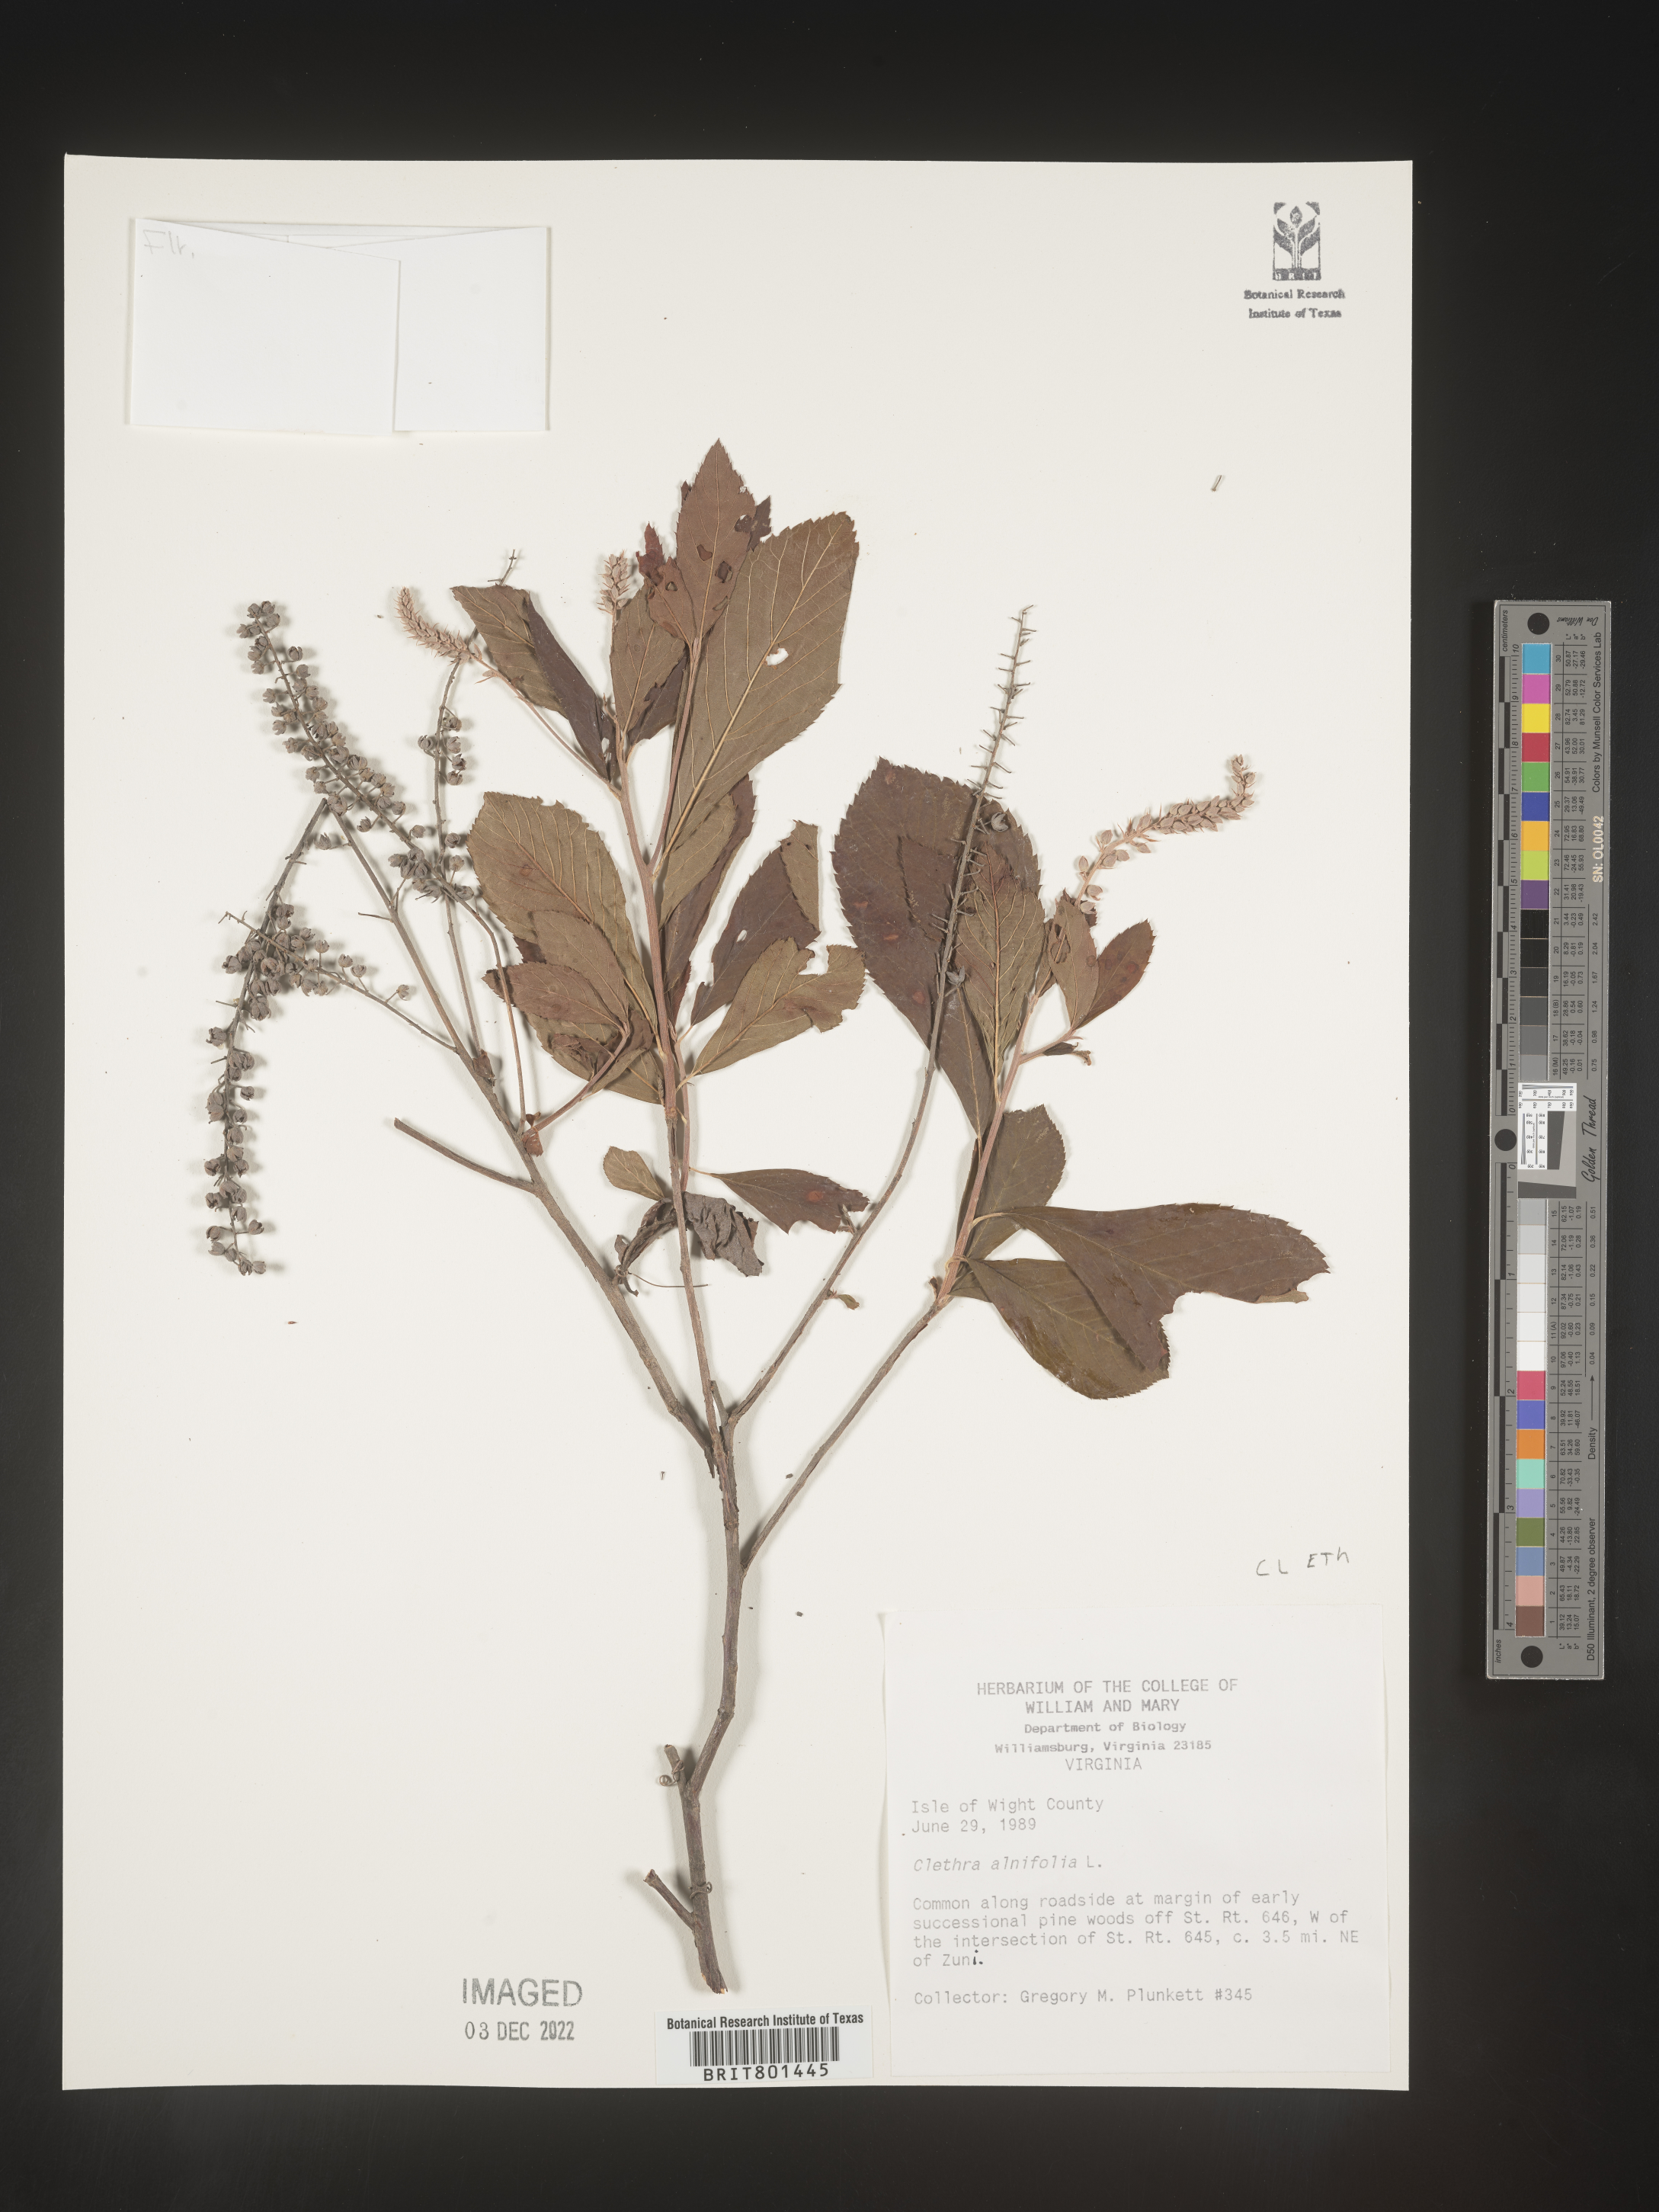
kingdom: Plantae
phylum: Tracheophyta
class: Magnoliopsida
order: Ericales
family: Clethraceae
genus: Clethra
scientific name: Clethra alnifolia
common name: Sweet pepperbush
